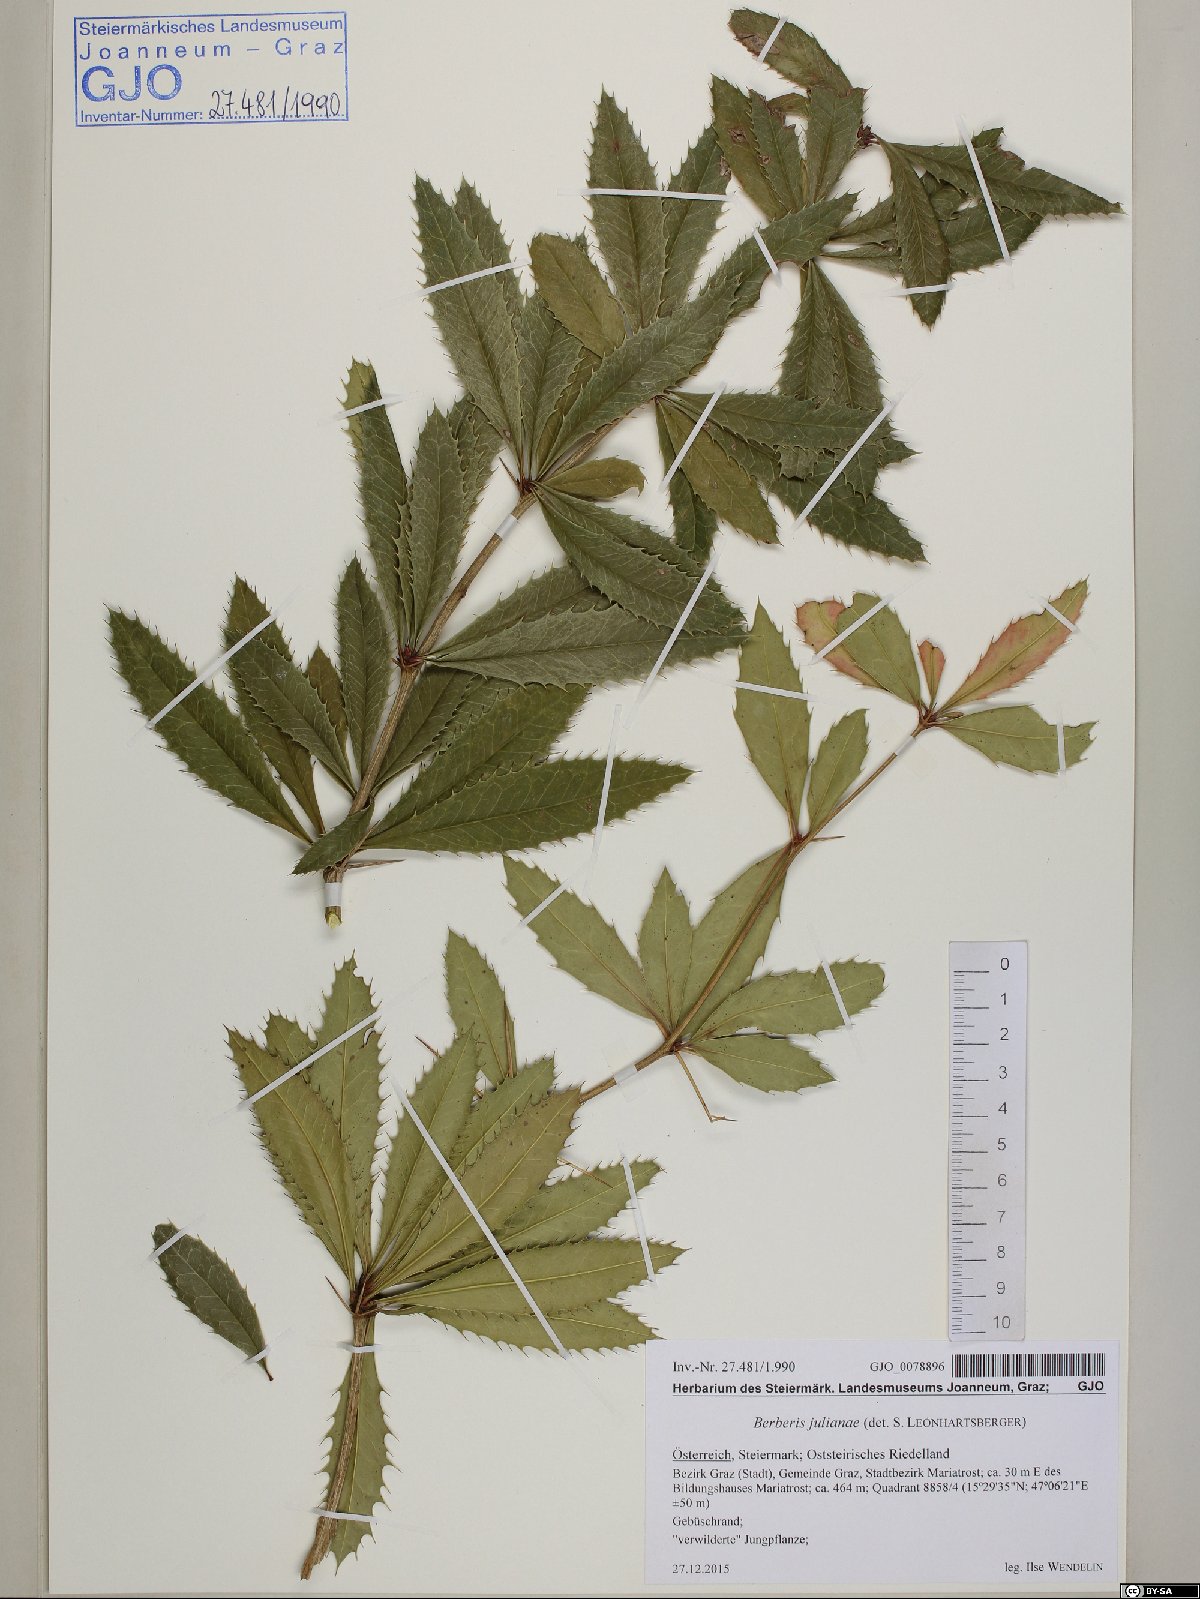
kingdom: Plantae
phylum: Tracheophyta
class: Magnoliopsida
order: Ranunculales
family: Berberidaceae
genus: Berberis
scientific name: Berberis julianae
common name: Wintergreen barberry
